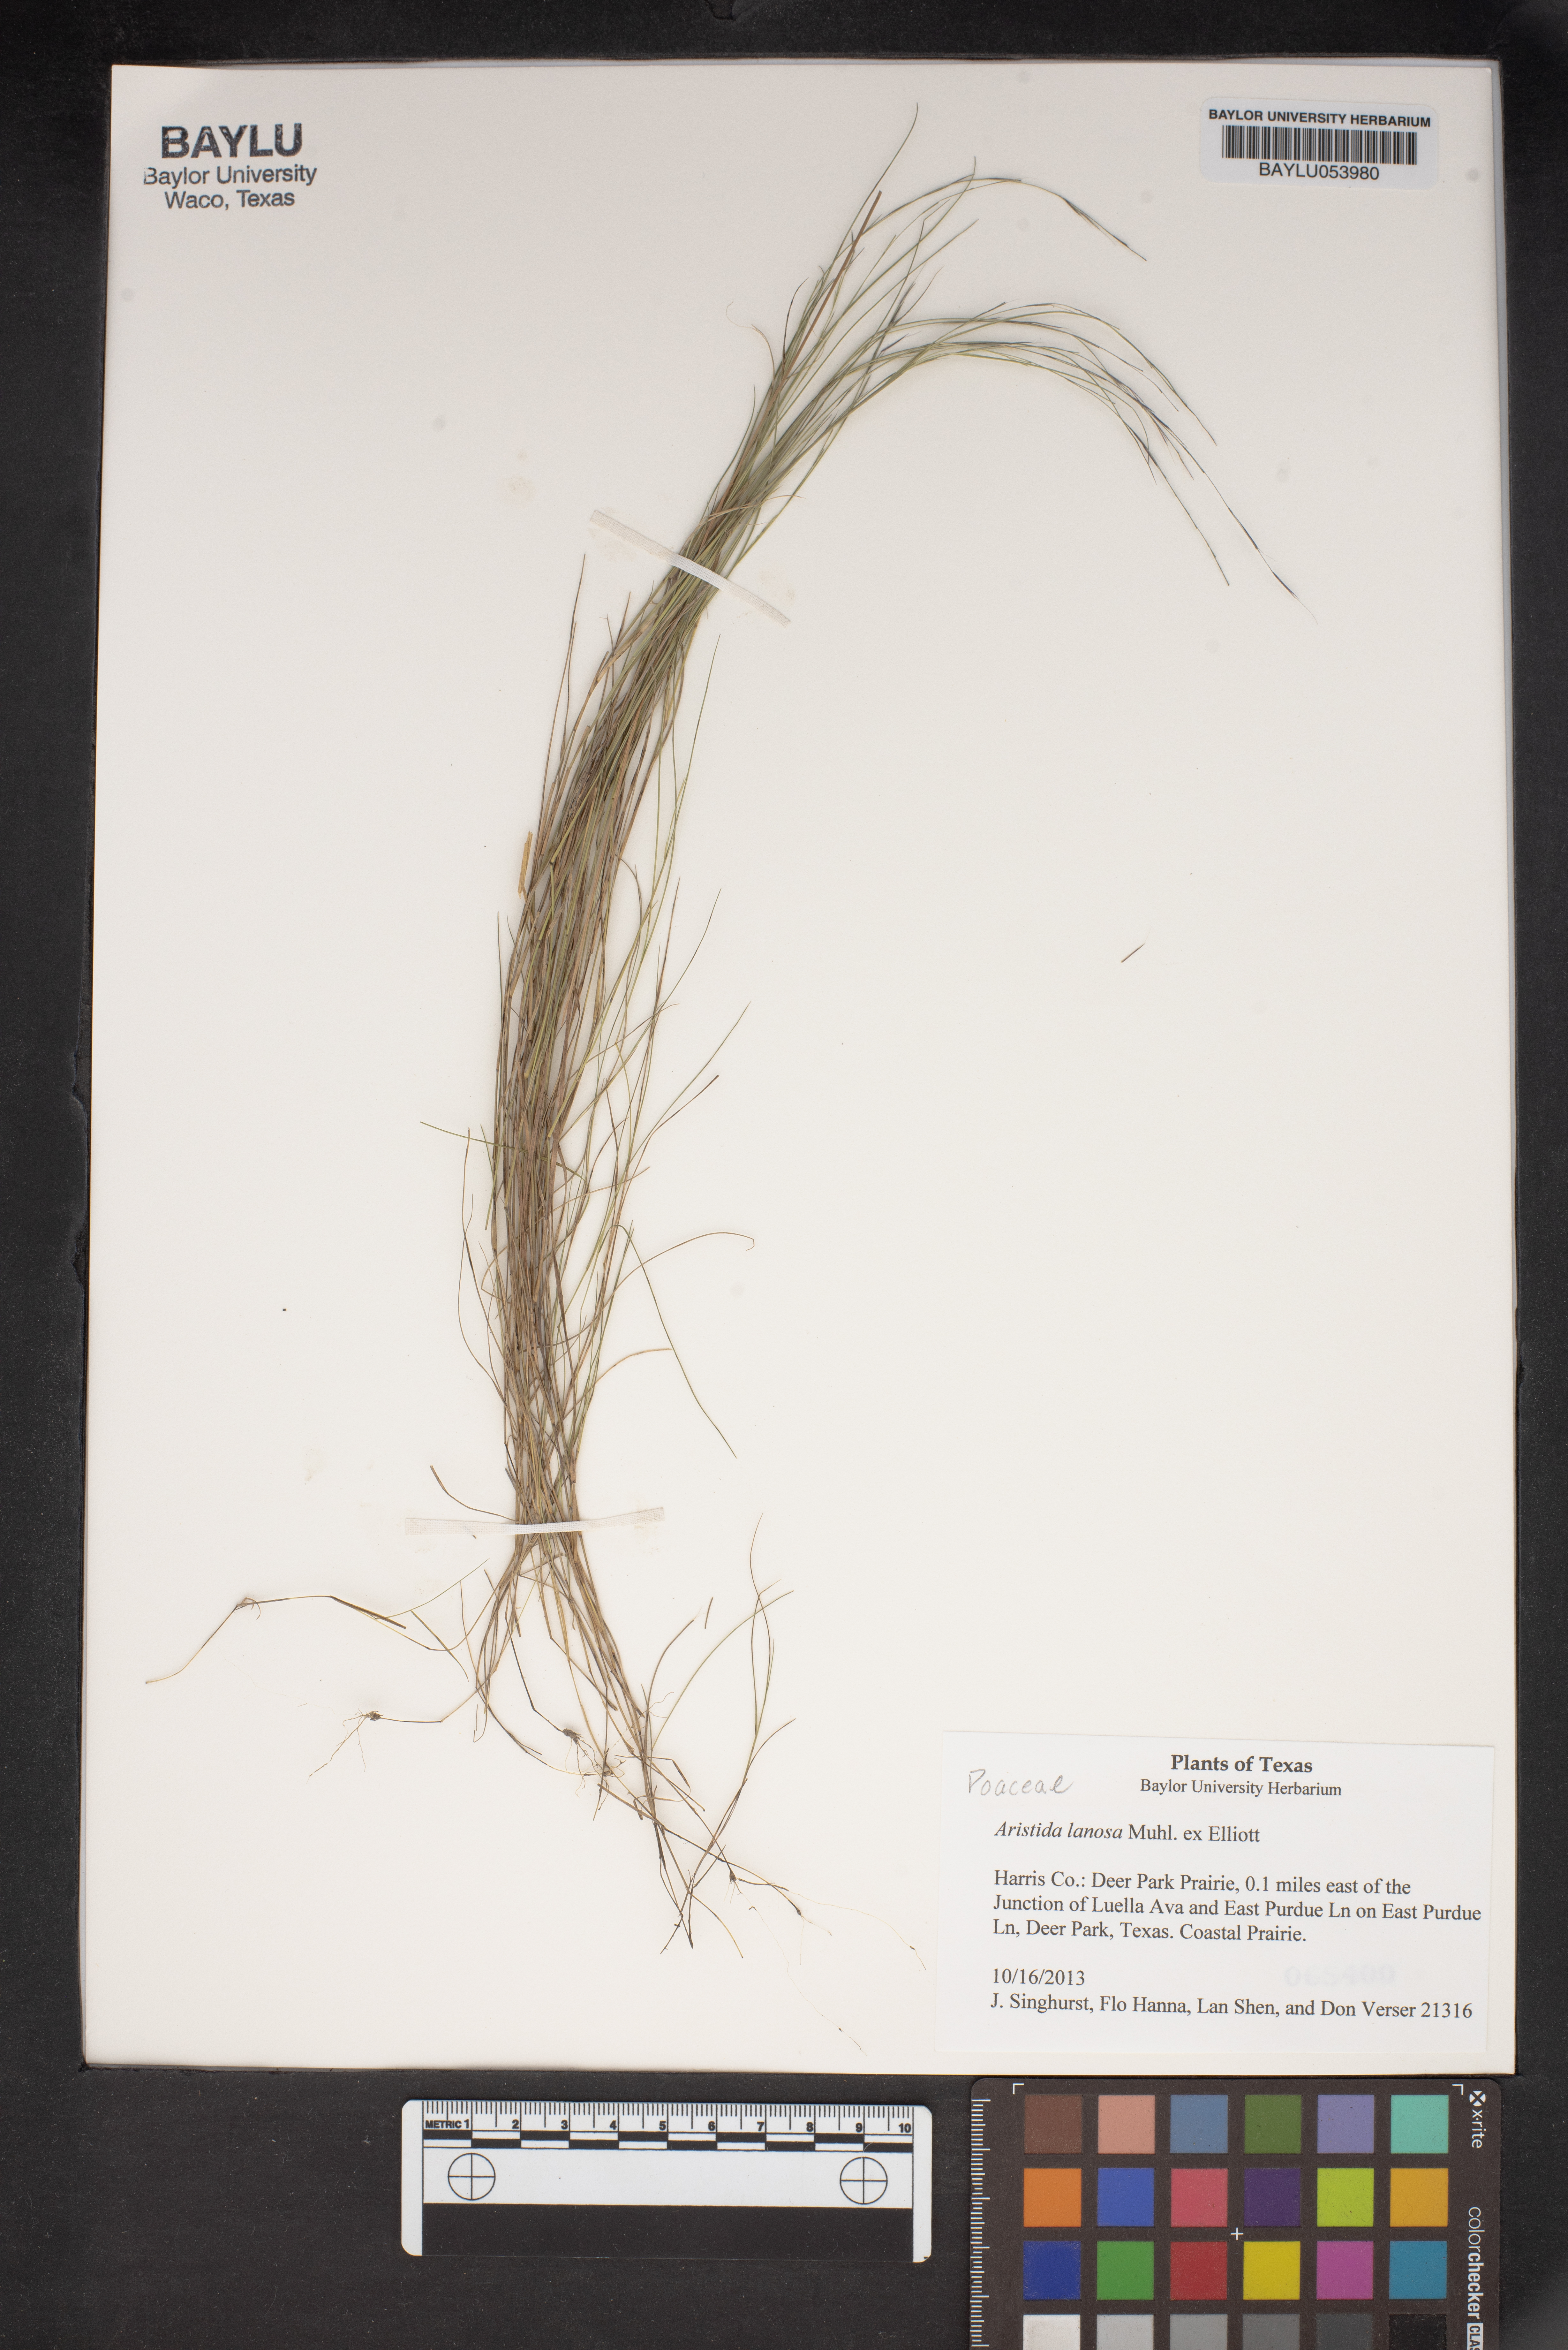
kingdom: Plantae
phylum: Tracheophyta
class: Liliopsida
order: Poales
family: Poaceae
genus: Aristida
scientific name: Aristida lanosa
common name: Woolly three-awn
